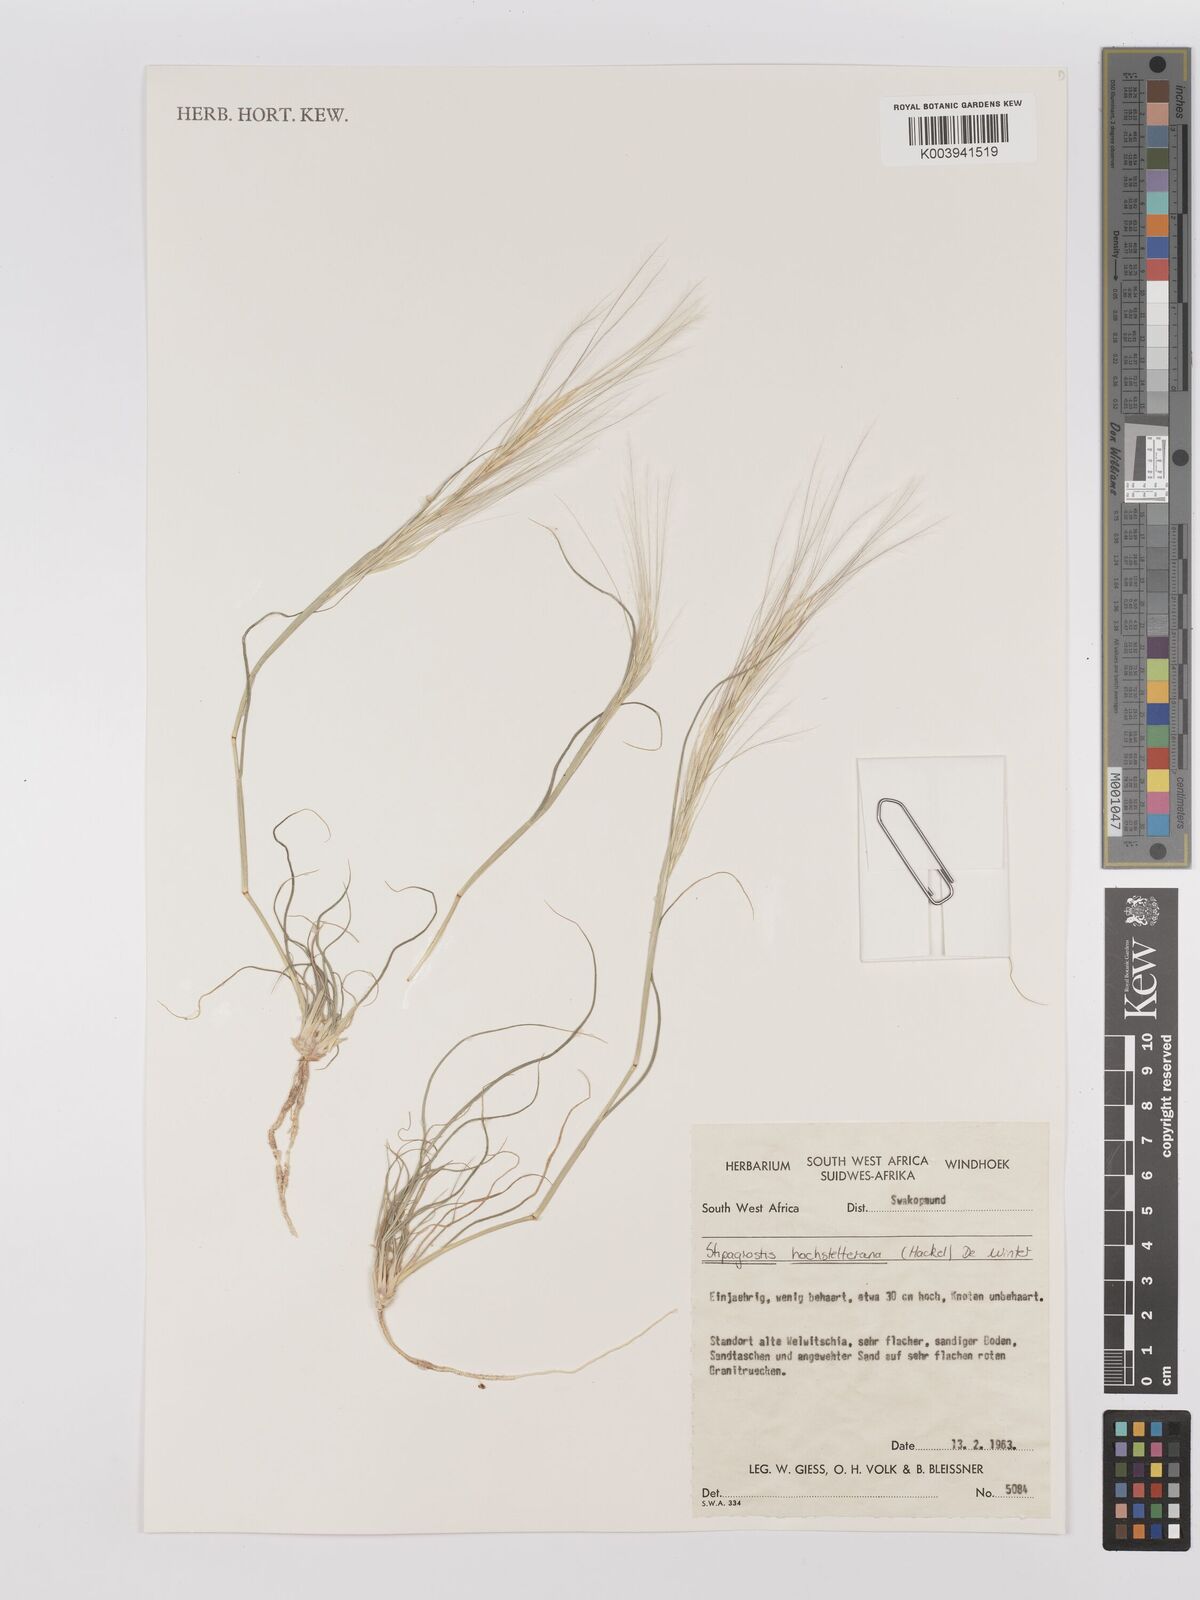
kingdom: Plantae
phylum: Tracheophyta
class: Liliopsida
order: Poales
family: Poaceae
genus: Stipagrostis
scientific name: Stipagrostis hochstetteriana
